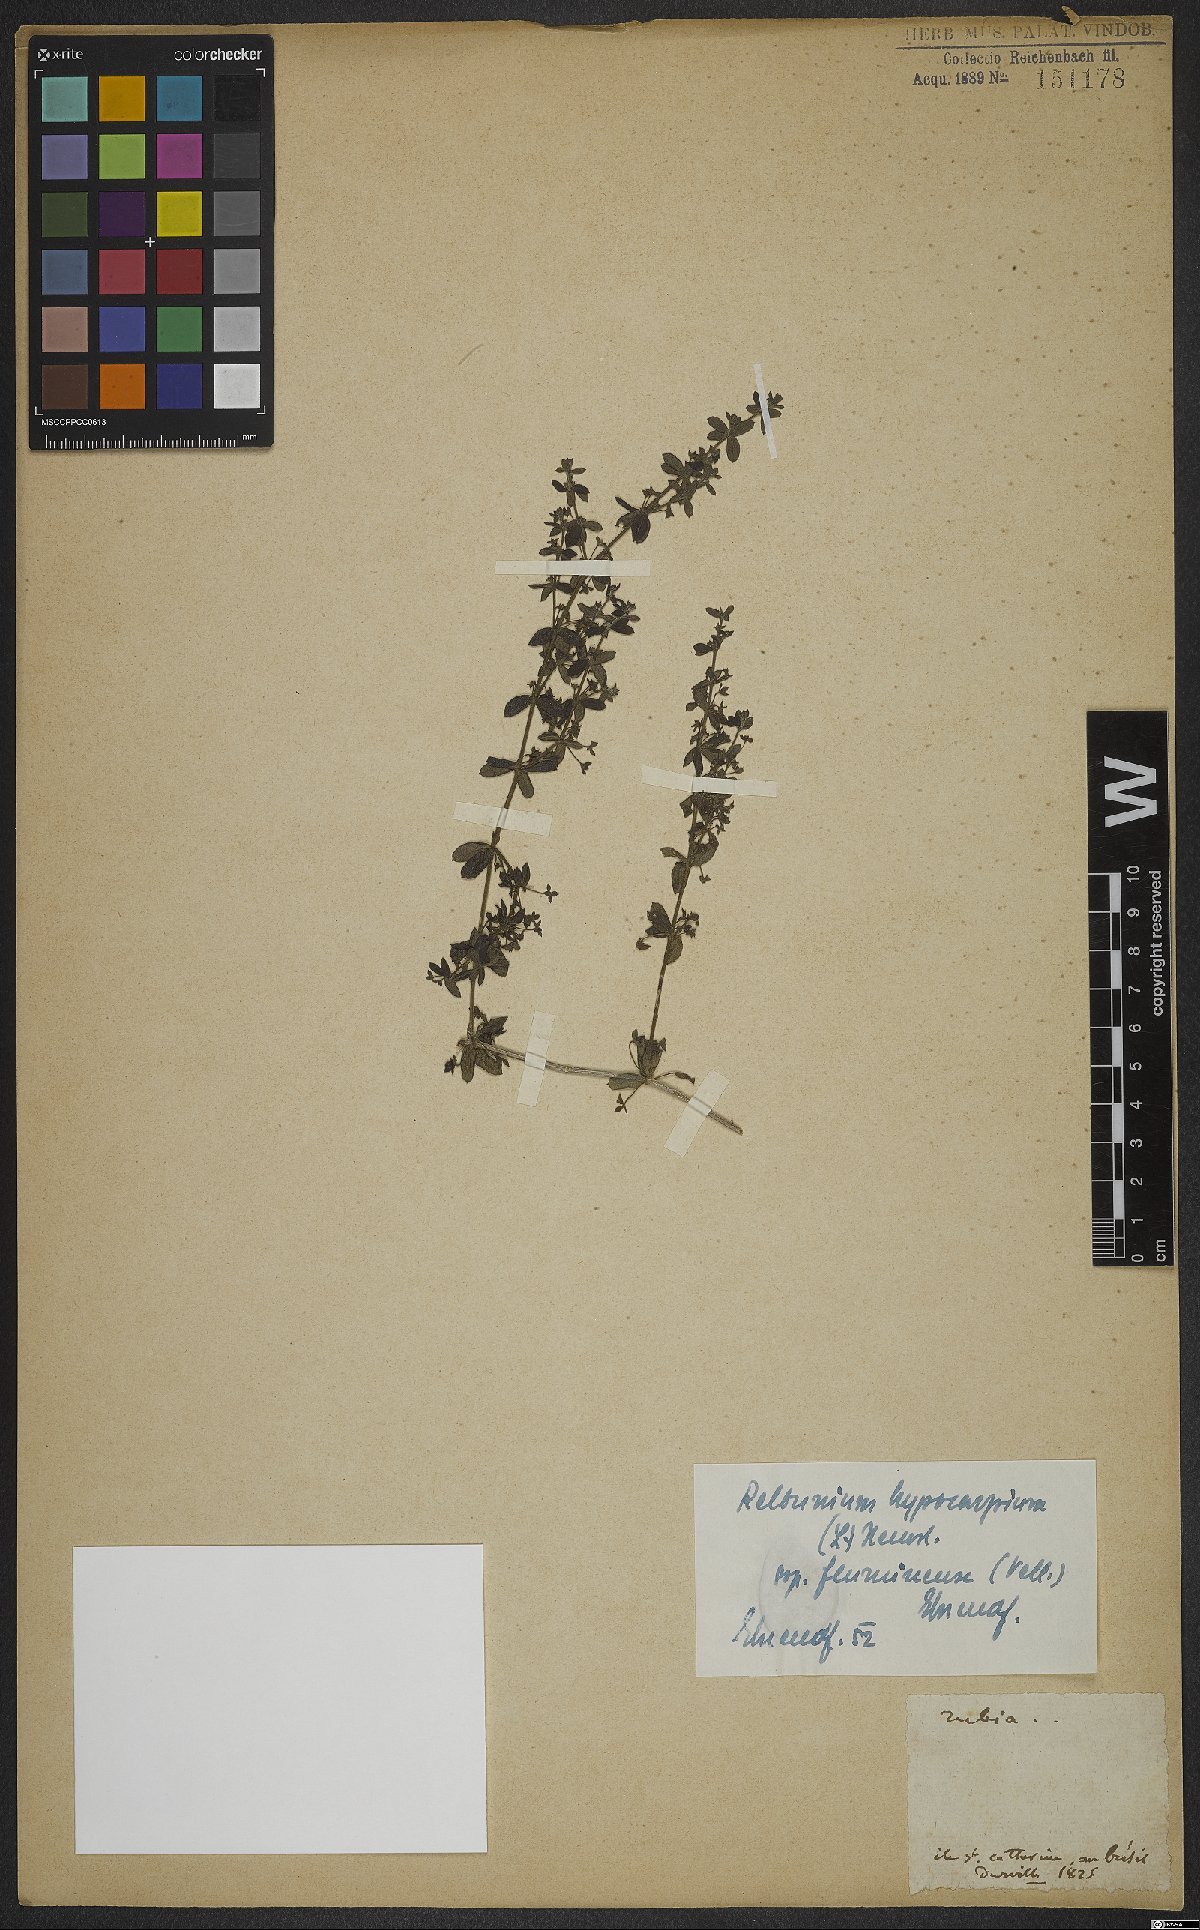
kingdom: Plantae
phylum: Tracheophyta
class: Magnoliopsida
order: Gentianales
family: Rubiaceae
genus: Galium
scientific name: Galium hypocarpium
